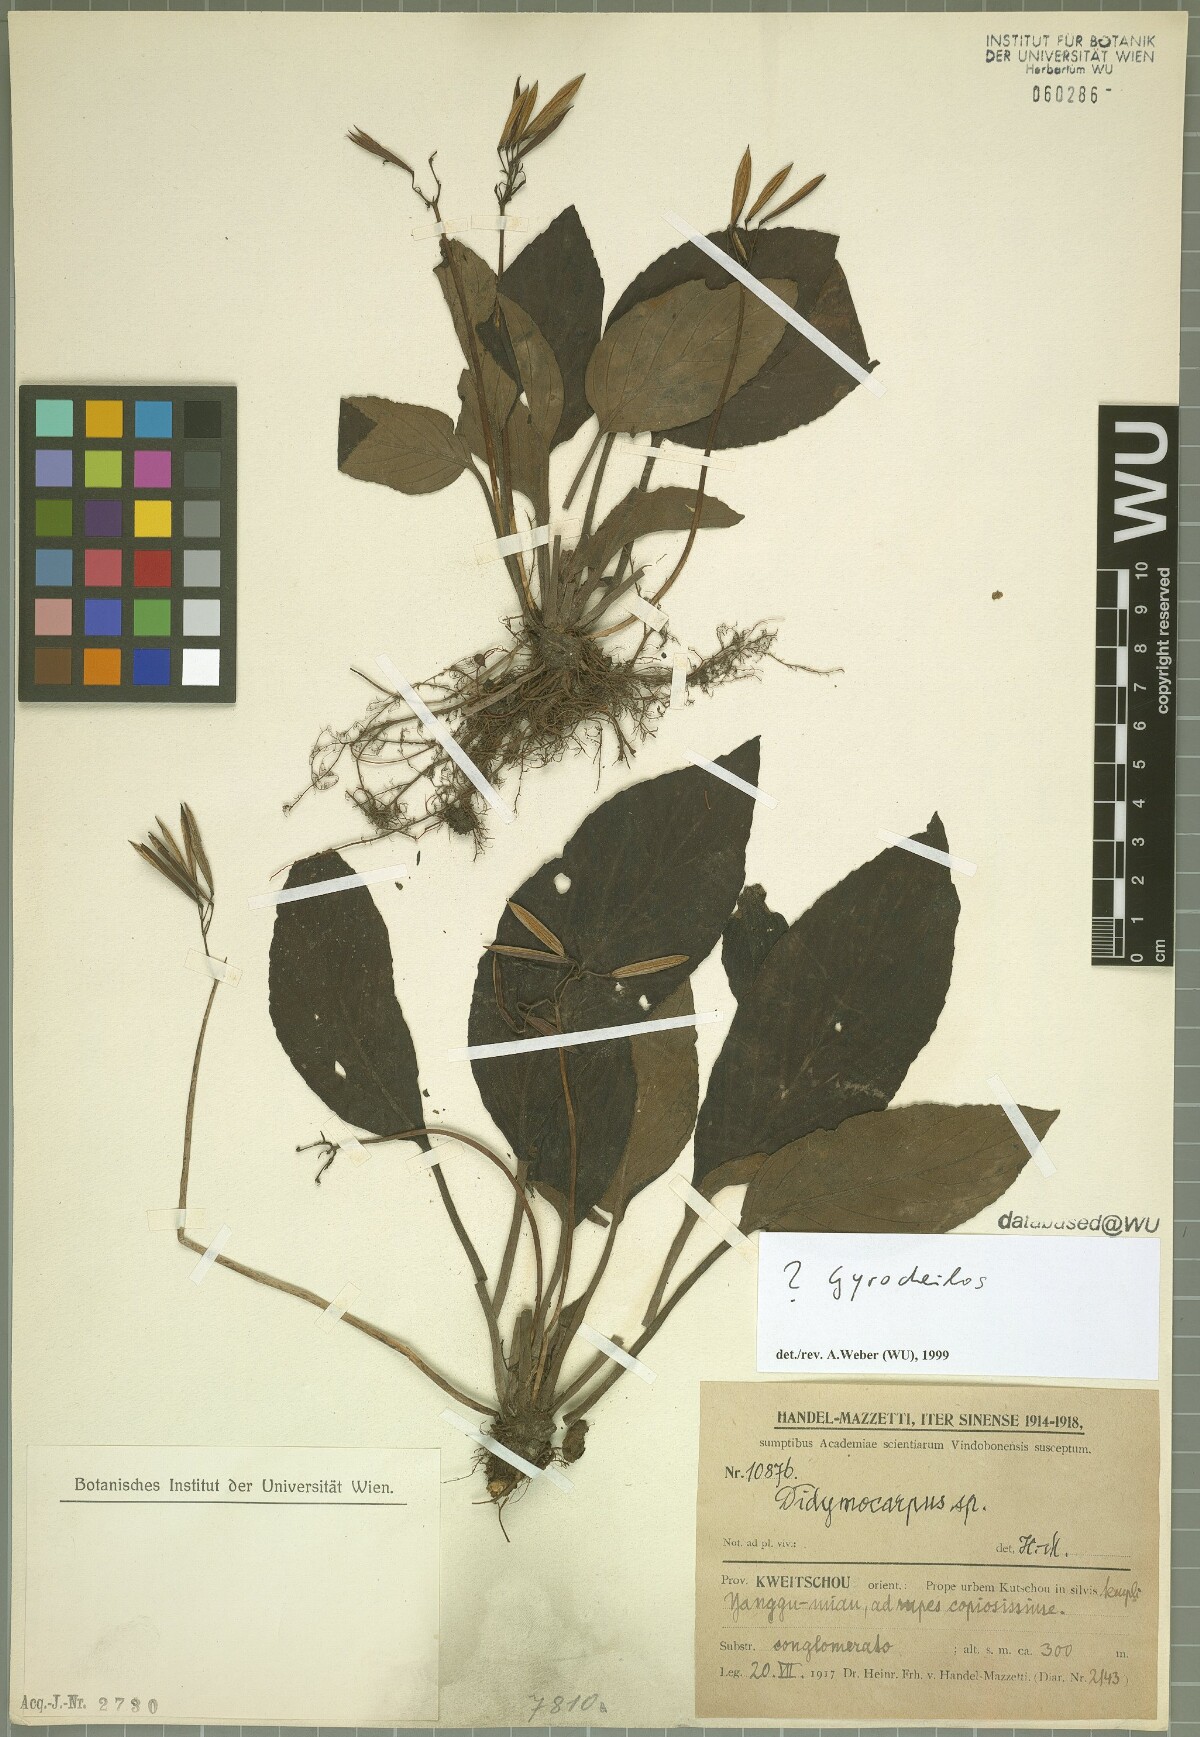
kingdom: Plantae
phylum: Tracheophyta
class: Magnoliopsida
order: Lamiales
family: Gesneriaceae
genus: Gyrocheilos
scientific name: Gyrocheilos
